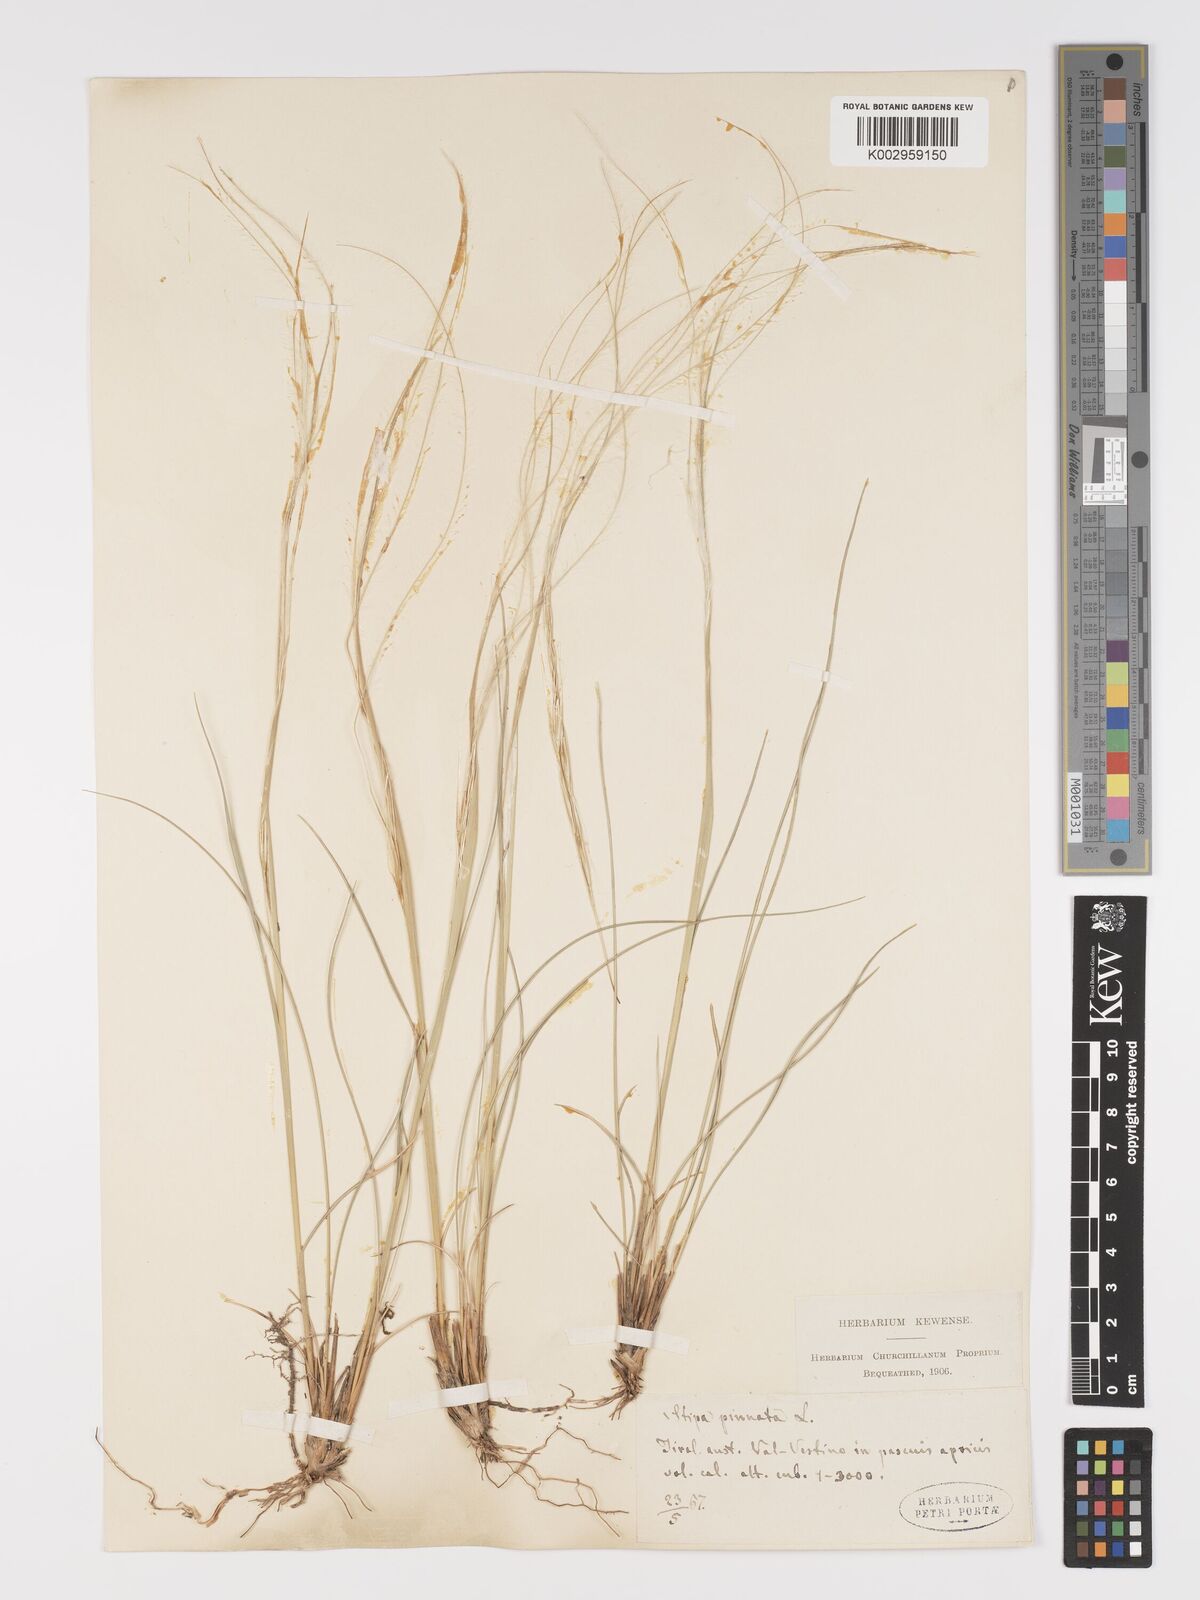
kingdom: Plantae
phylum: Tracheophyta
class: Liliopsida
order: Poales
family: Poaceae
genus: Stipa
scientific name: Stipa pennata
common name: European feather grass
